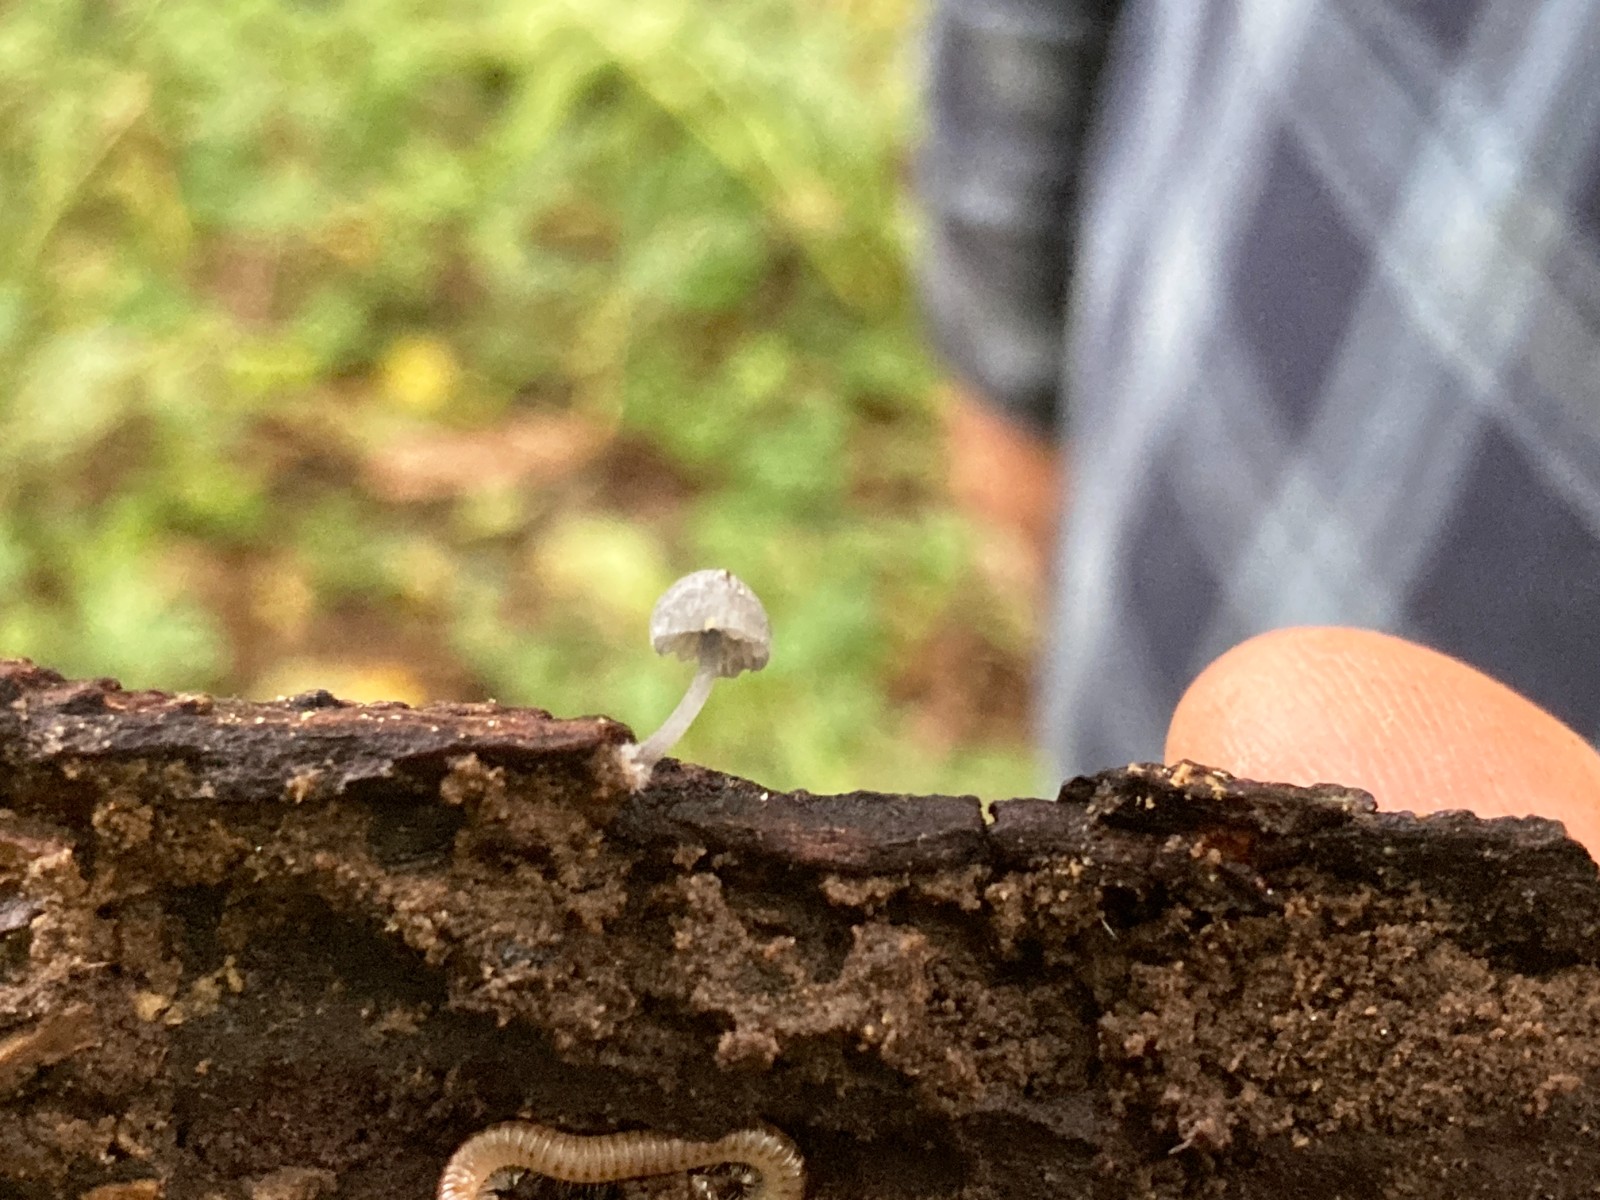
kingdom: Fungi
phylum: Basidiomycota
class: Agaricomycetes
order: Agaricales
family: Mycenaceae
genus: Mycena
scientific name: Mycena pseudocorticola
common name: gråblå bark-huesvamp
